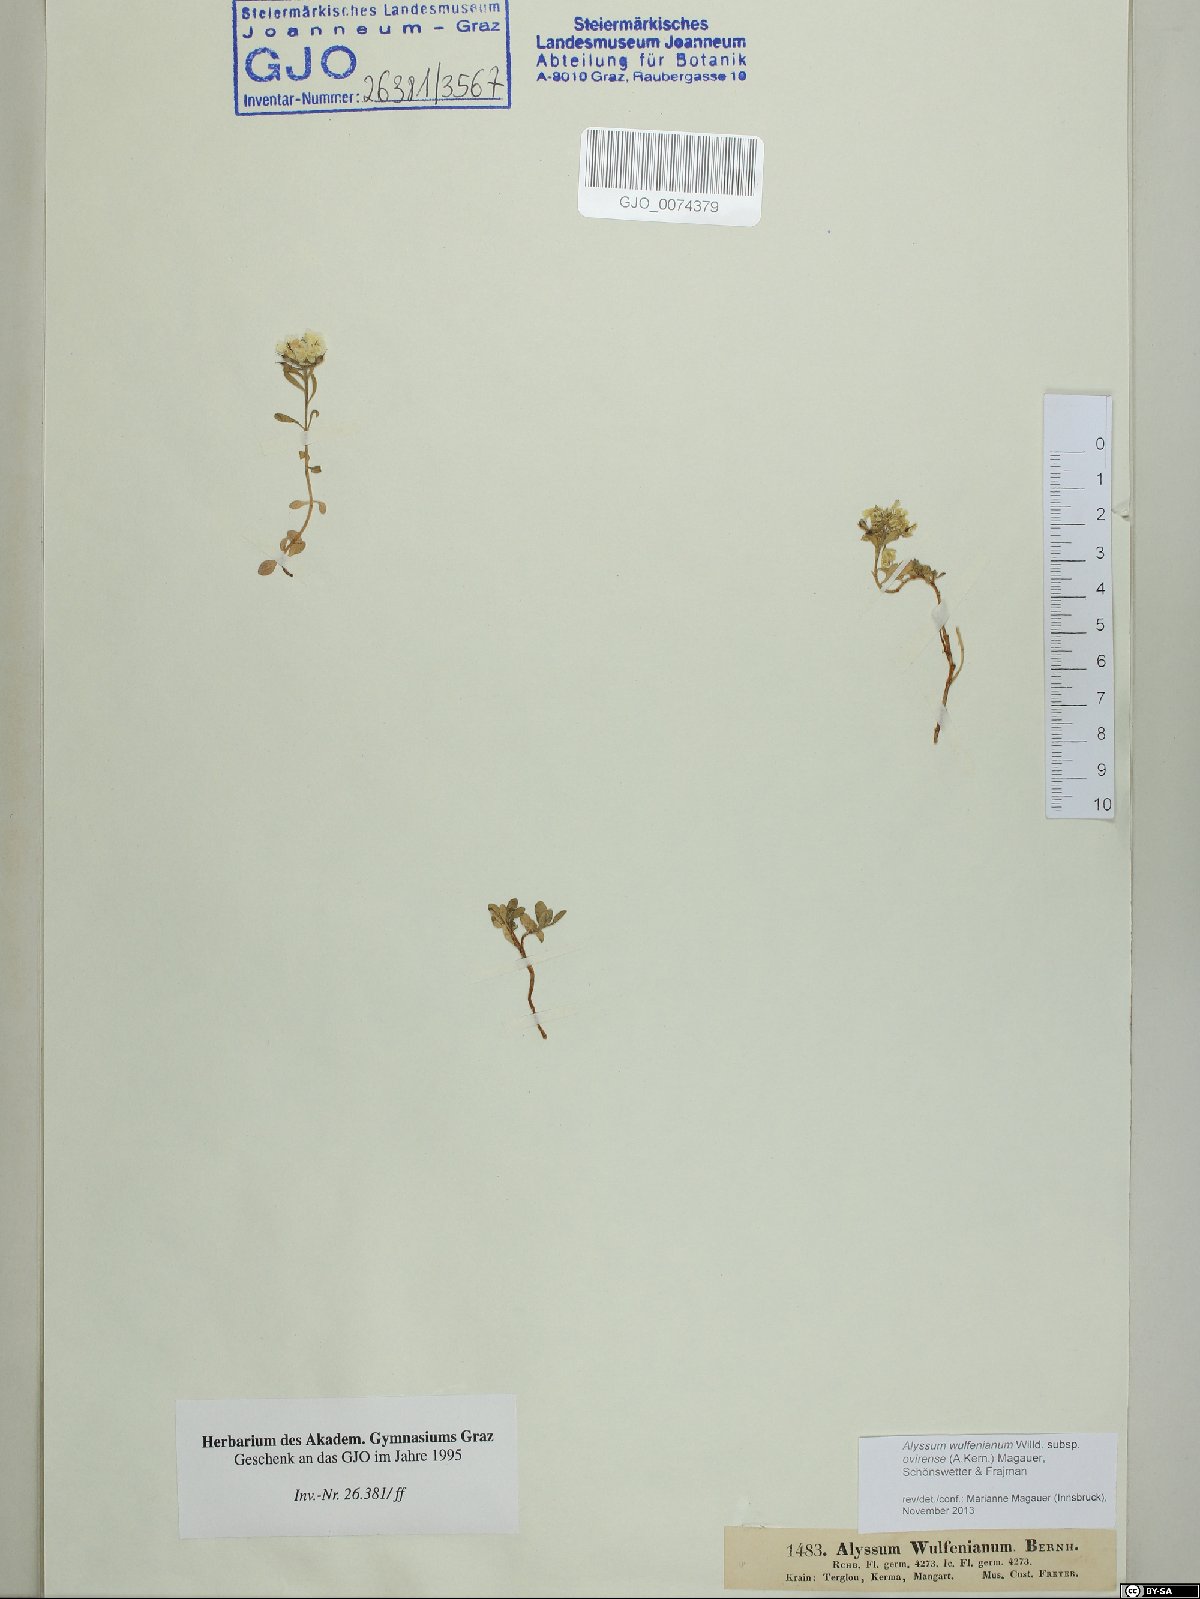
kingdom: Plantae
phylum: Tracheophyta
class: Magnoliopsida
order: Brassicales
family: Brassicaceae
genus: Alyssum
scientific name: Alyssum wulfenianum
